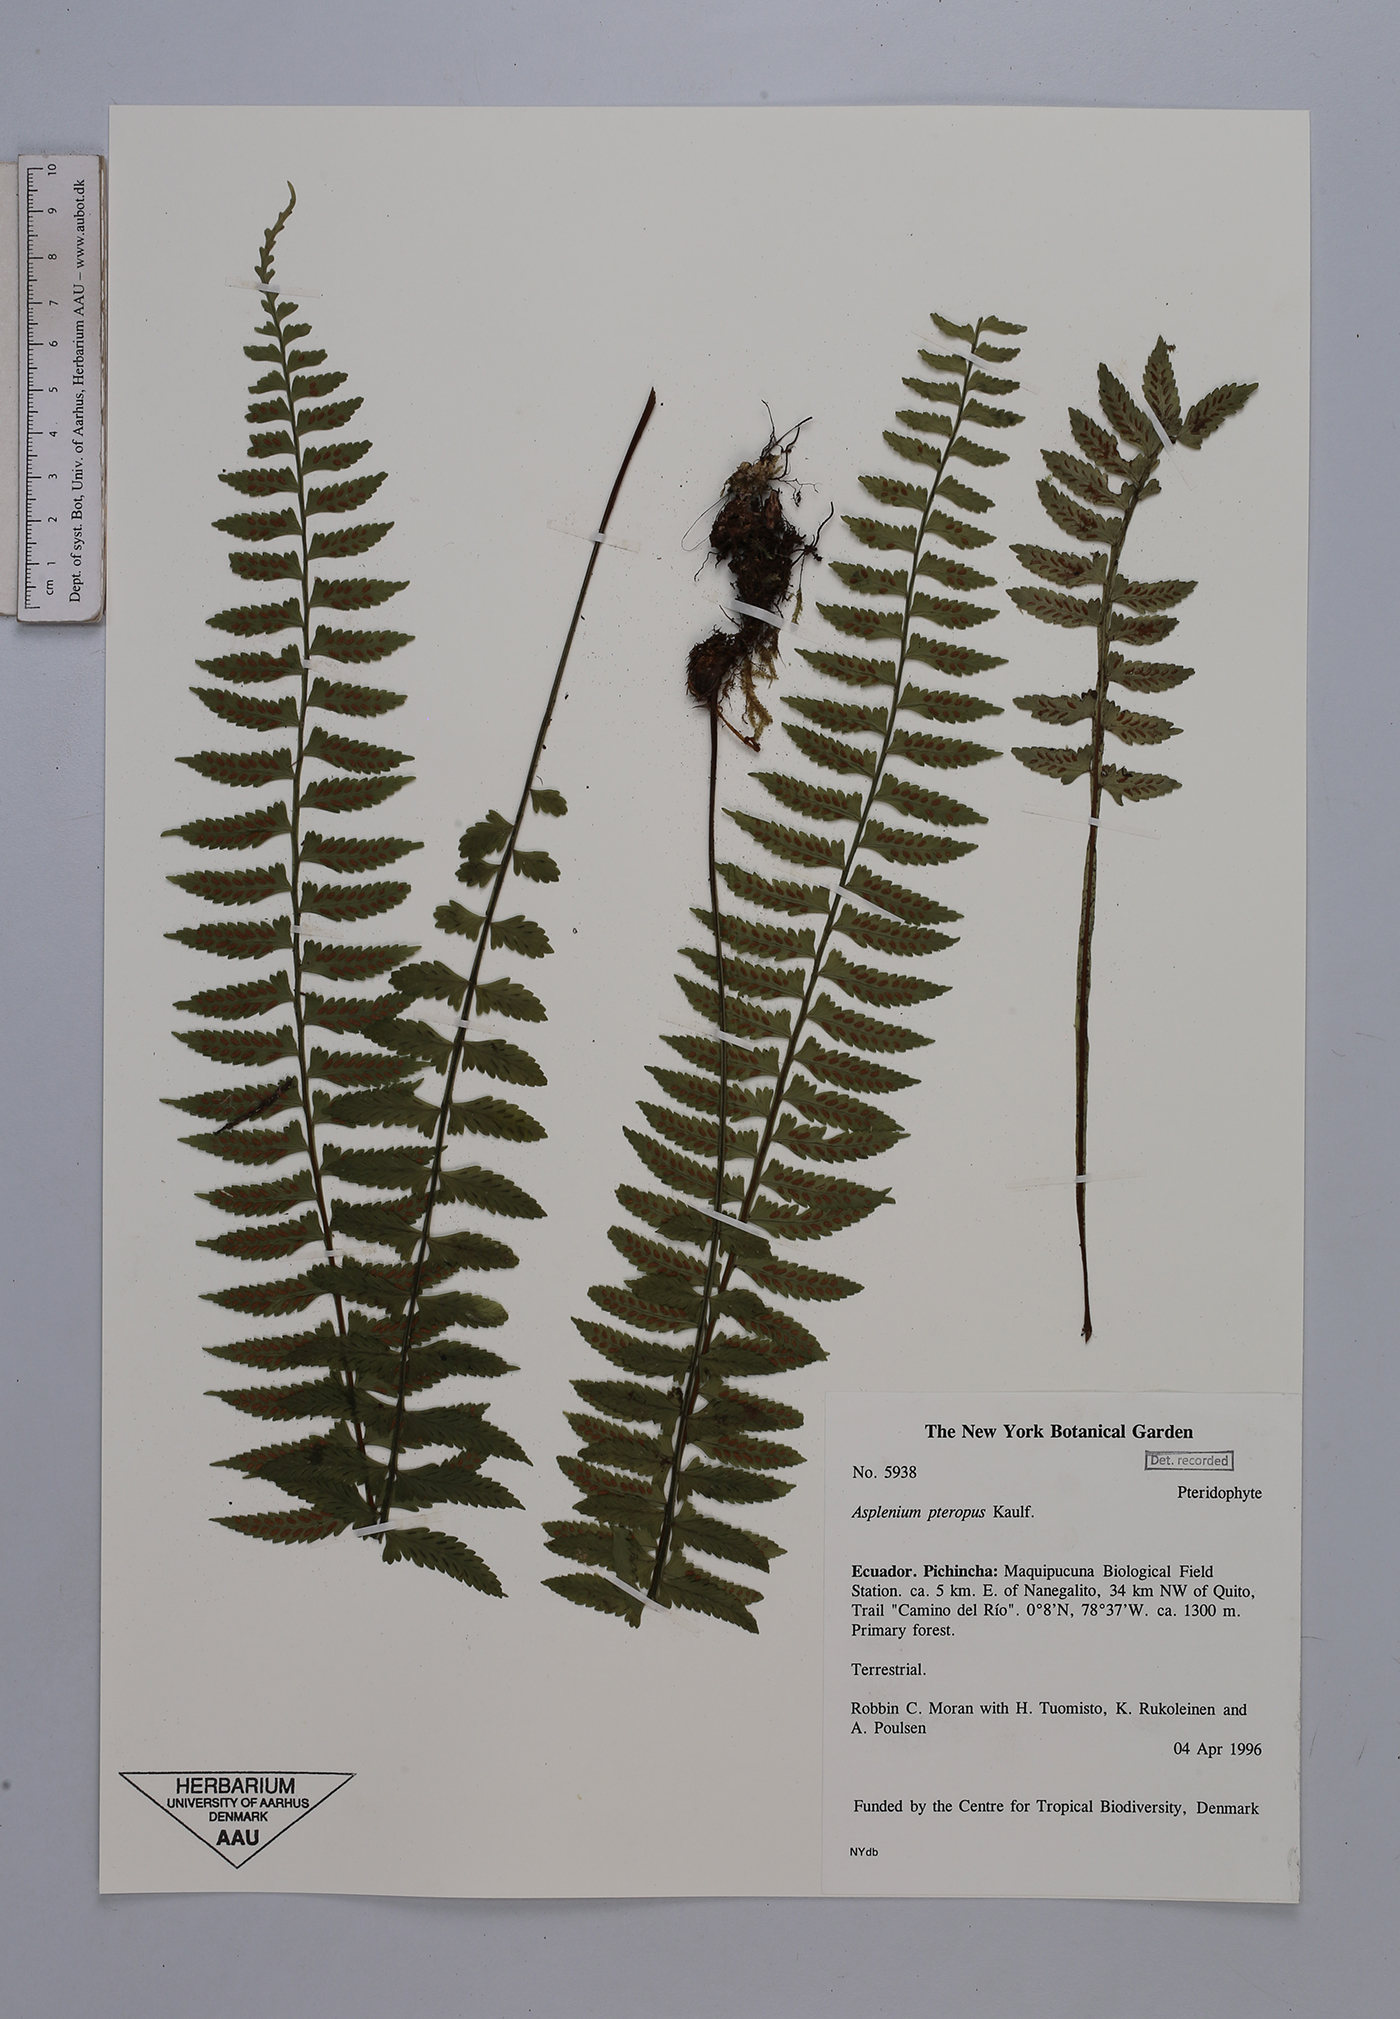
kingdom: Plantae
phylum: Tracheophyta
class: Polypodiopsida
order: Polypodiales
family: Aspleniaceae
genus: Asplenium
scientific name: Asplenium pteropus
